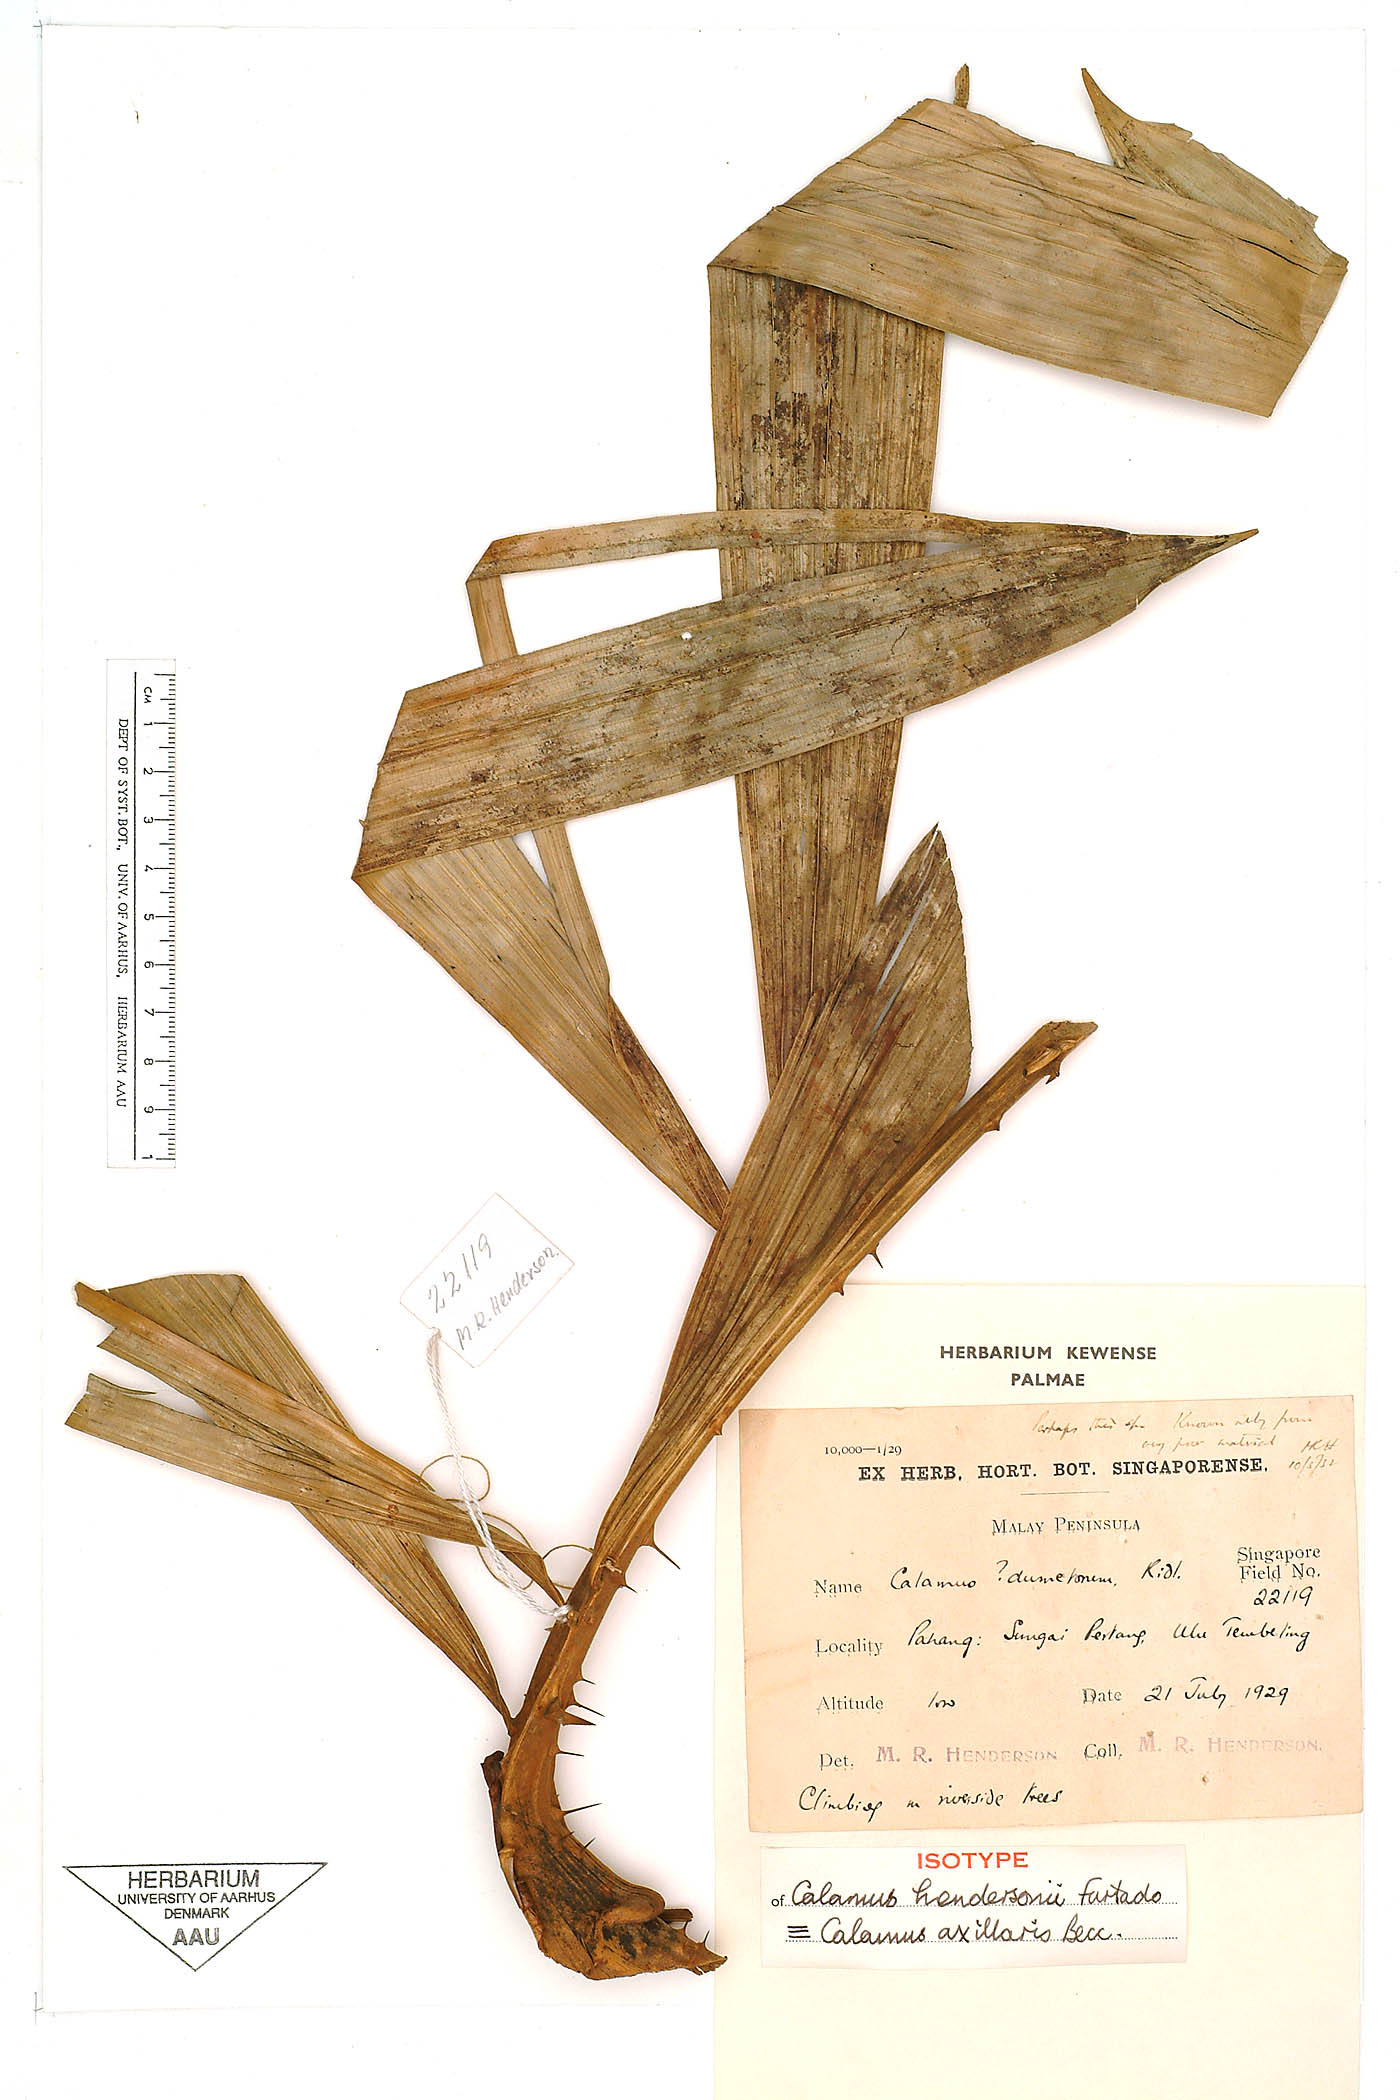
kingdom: Plantae
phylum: Tracheophyta
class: Liliopsida
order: Arecales
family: Arecaceae
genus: Calamus
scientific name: Calamus axillaris
